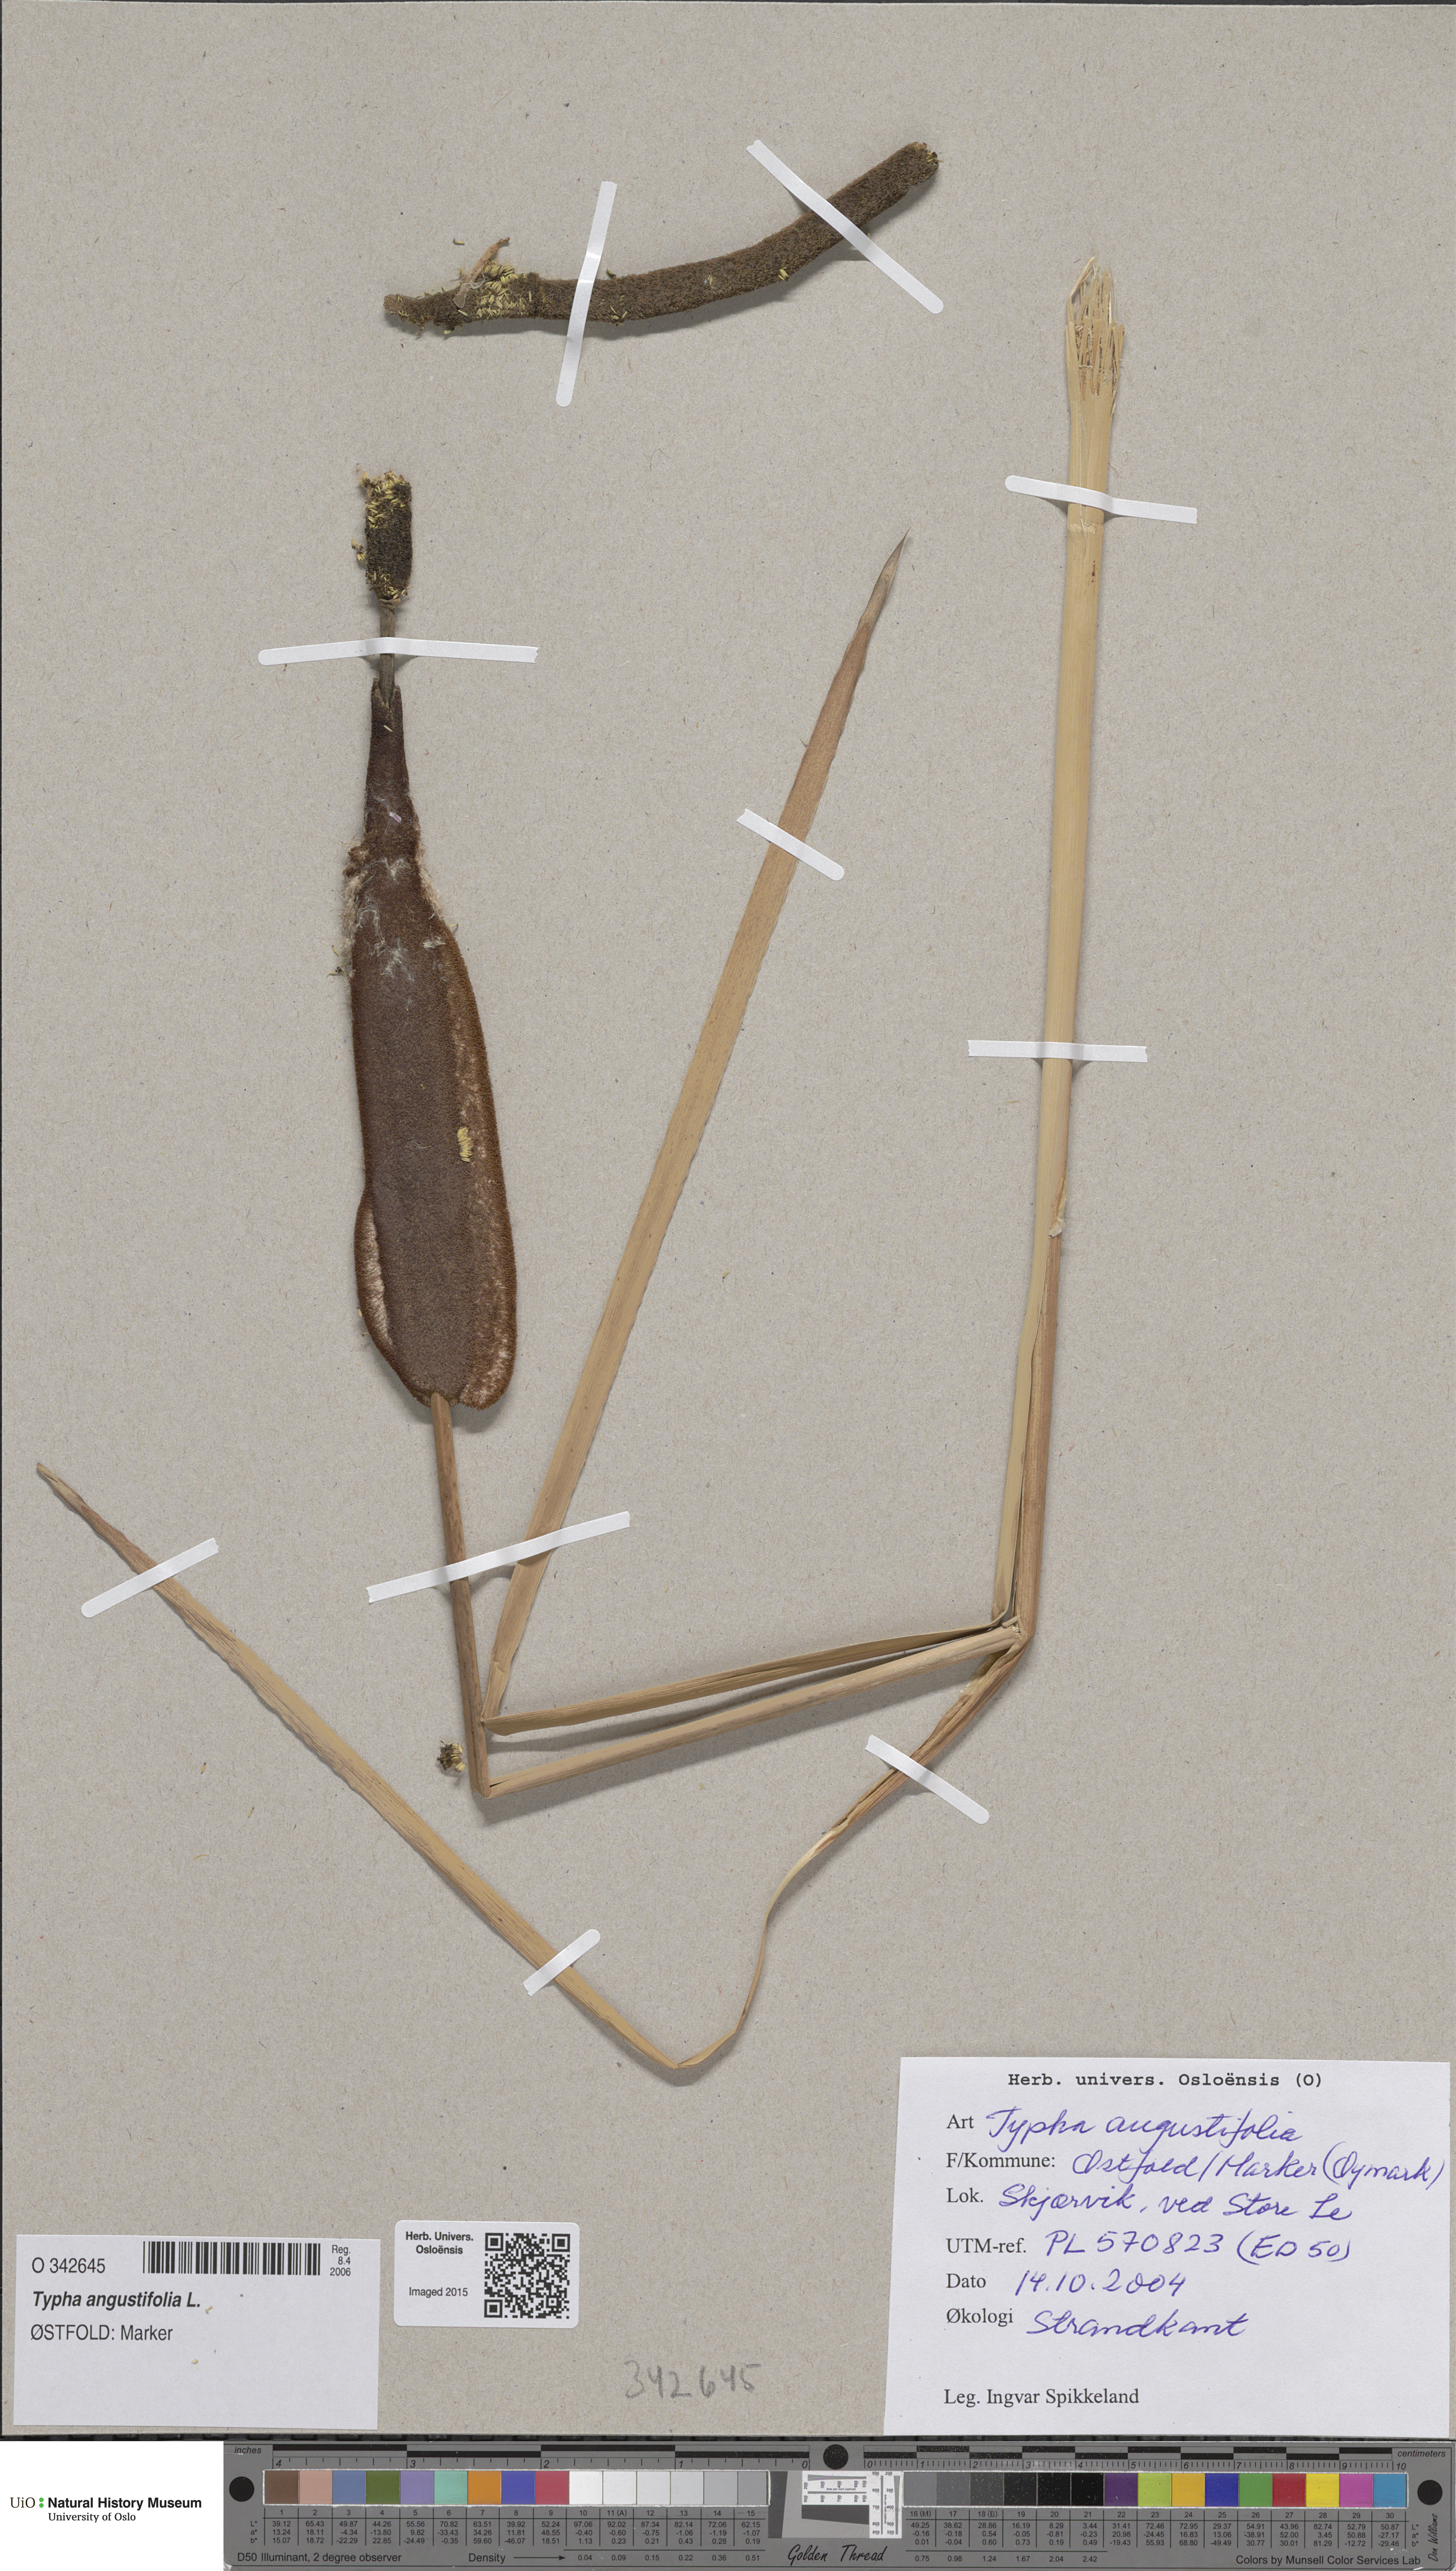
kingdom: Plantae
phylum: Tracheophyta
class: Liliopsida
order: Poales
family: Typhaceae
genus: Typha
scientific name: Typha angustifolia
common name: Lesser bulrush
